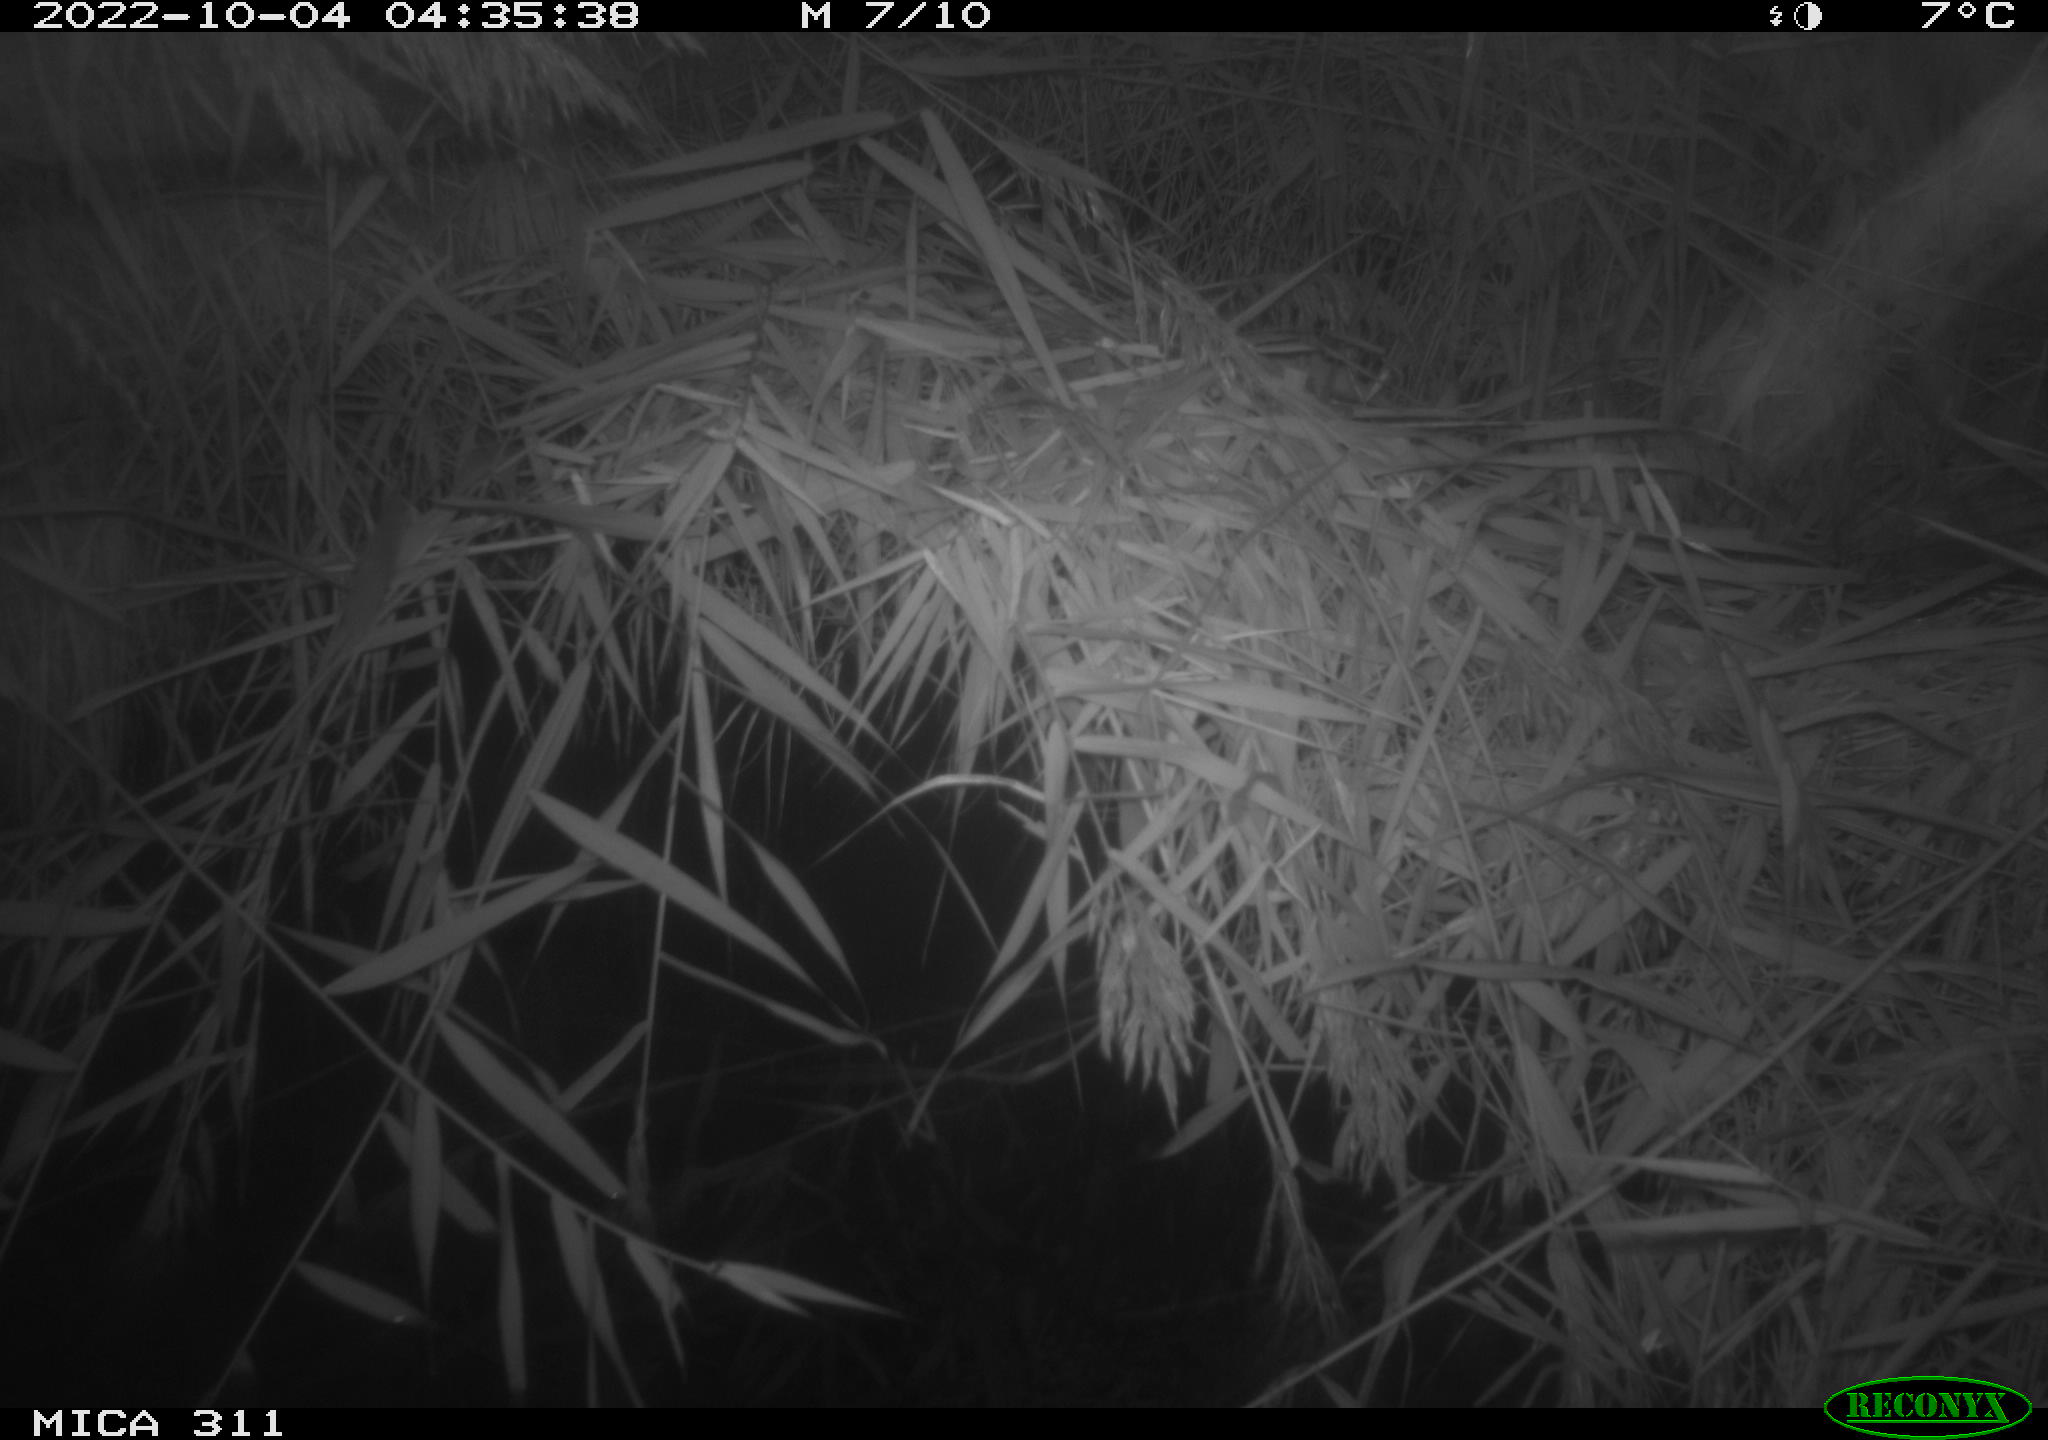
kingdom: Animalia
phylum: Chordata
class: Mammalia
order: Rodentia
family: Muridae
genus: Rattus
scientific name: Rattus norvegicus
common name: Brown rat
